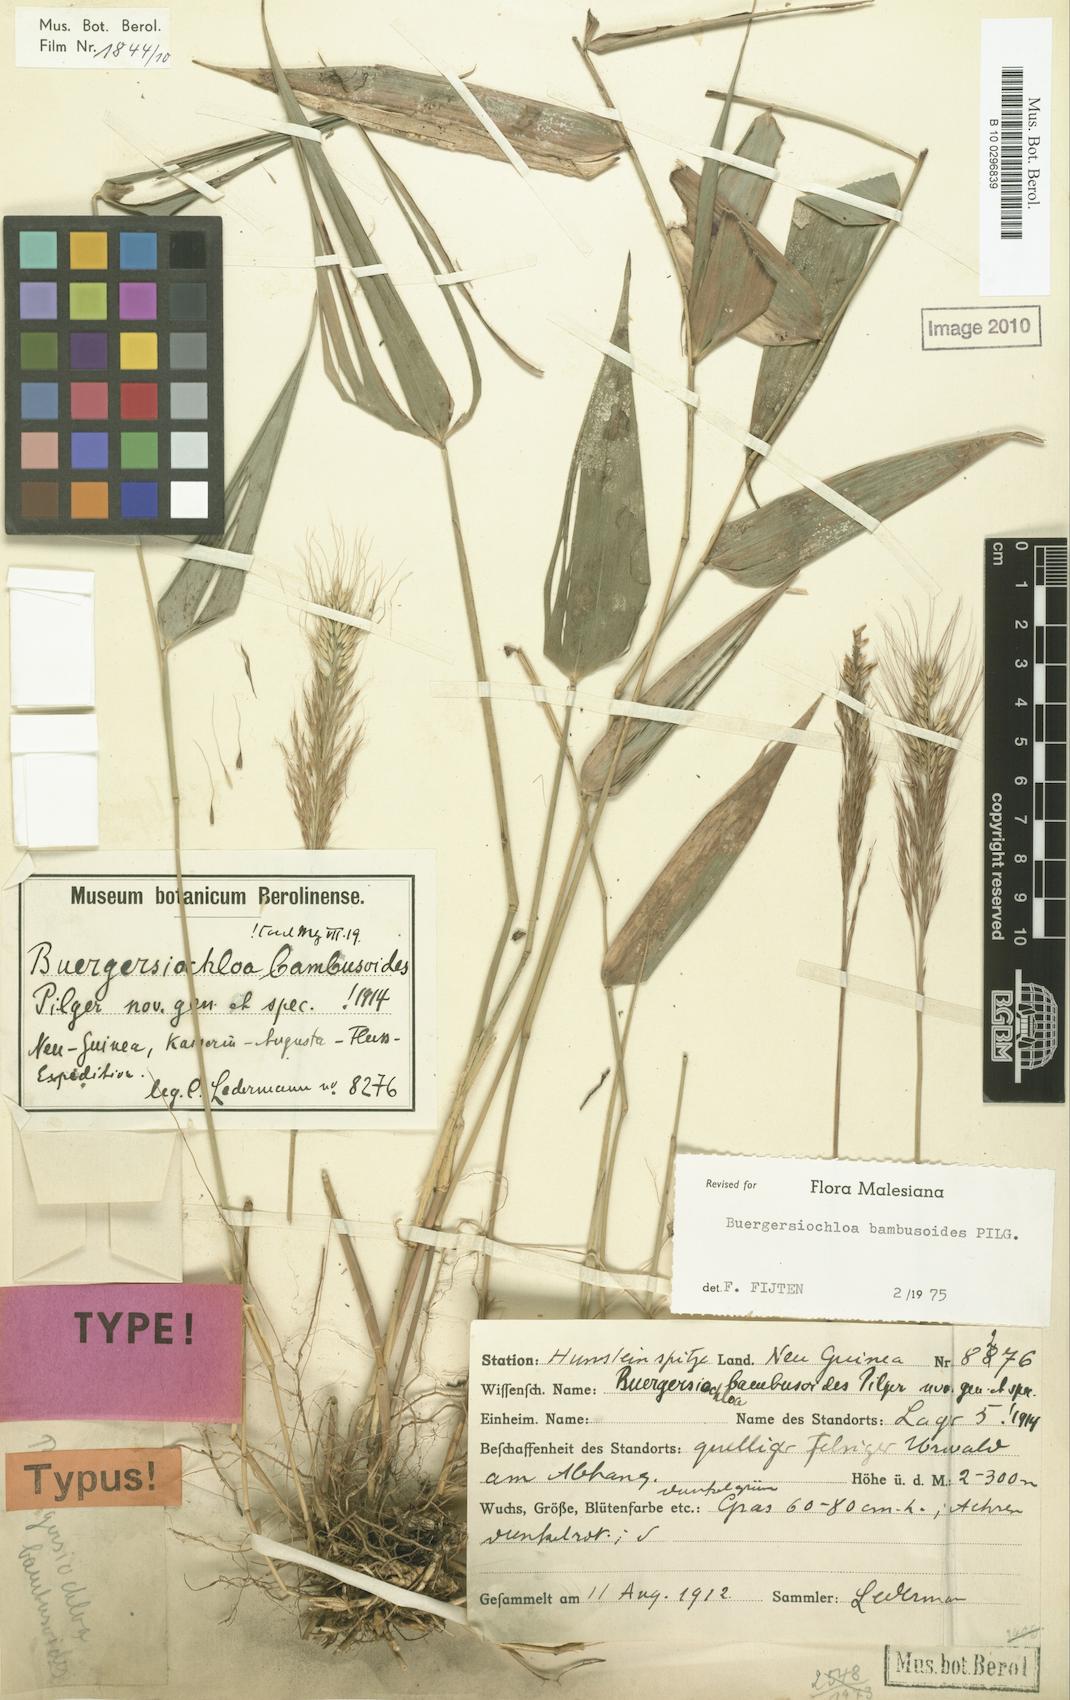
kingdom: Plantae
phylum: Tracheophyta
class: Liliopsida
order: Poales
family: Poaceae
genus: Buergersiochloa
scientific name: Buergersiochloa bambusoides
